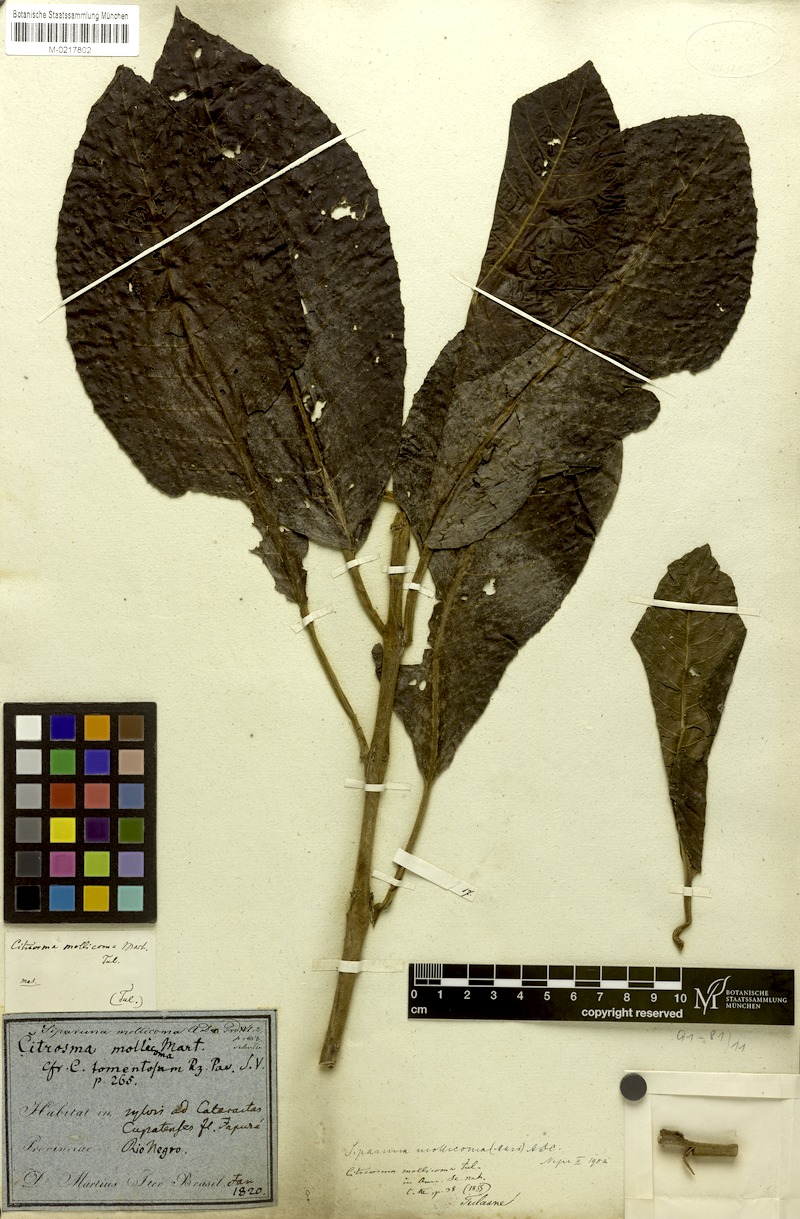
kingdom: Plantae
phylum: Tracheophyta
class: Magnoliopsida
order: Laurales
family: Siparunaceae
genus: Siparuna
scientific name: Siparuna sessiliflora
